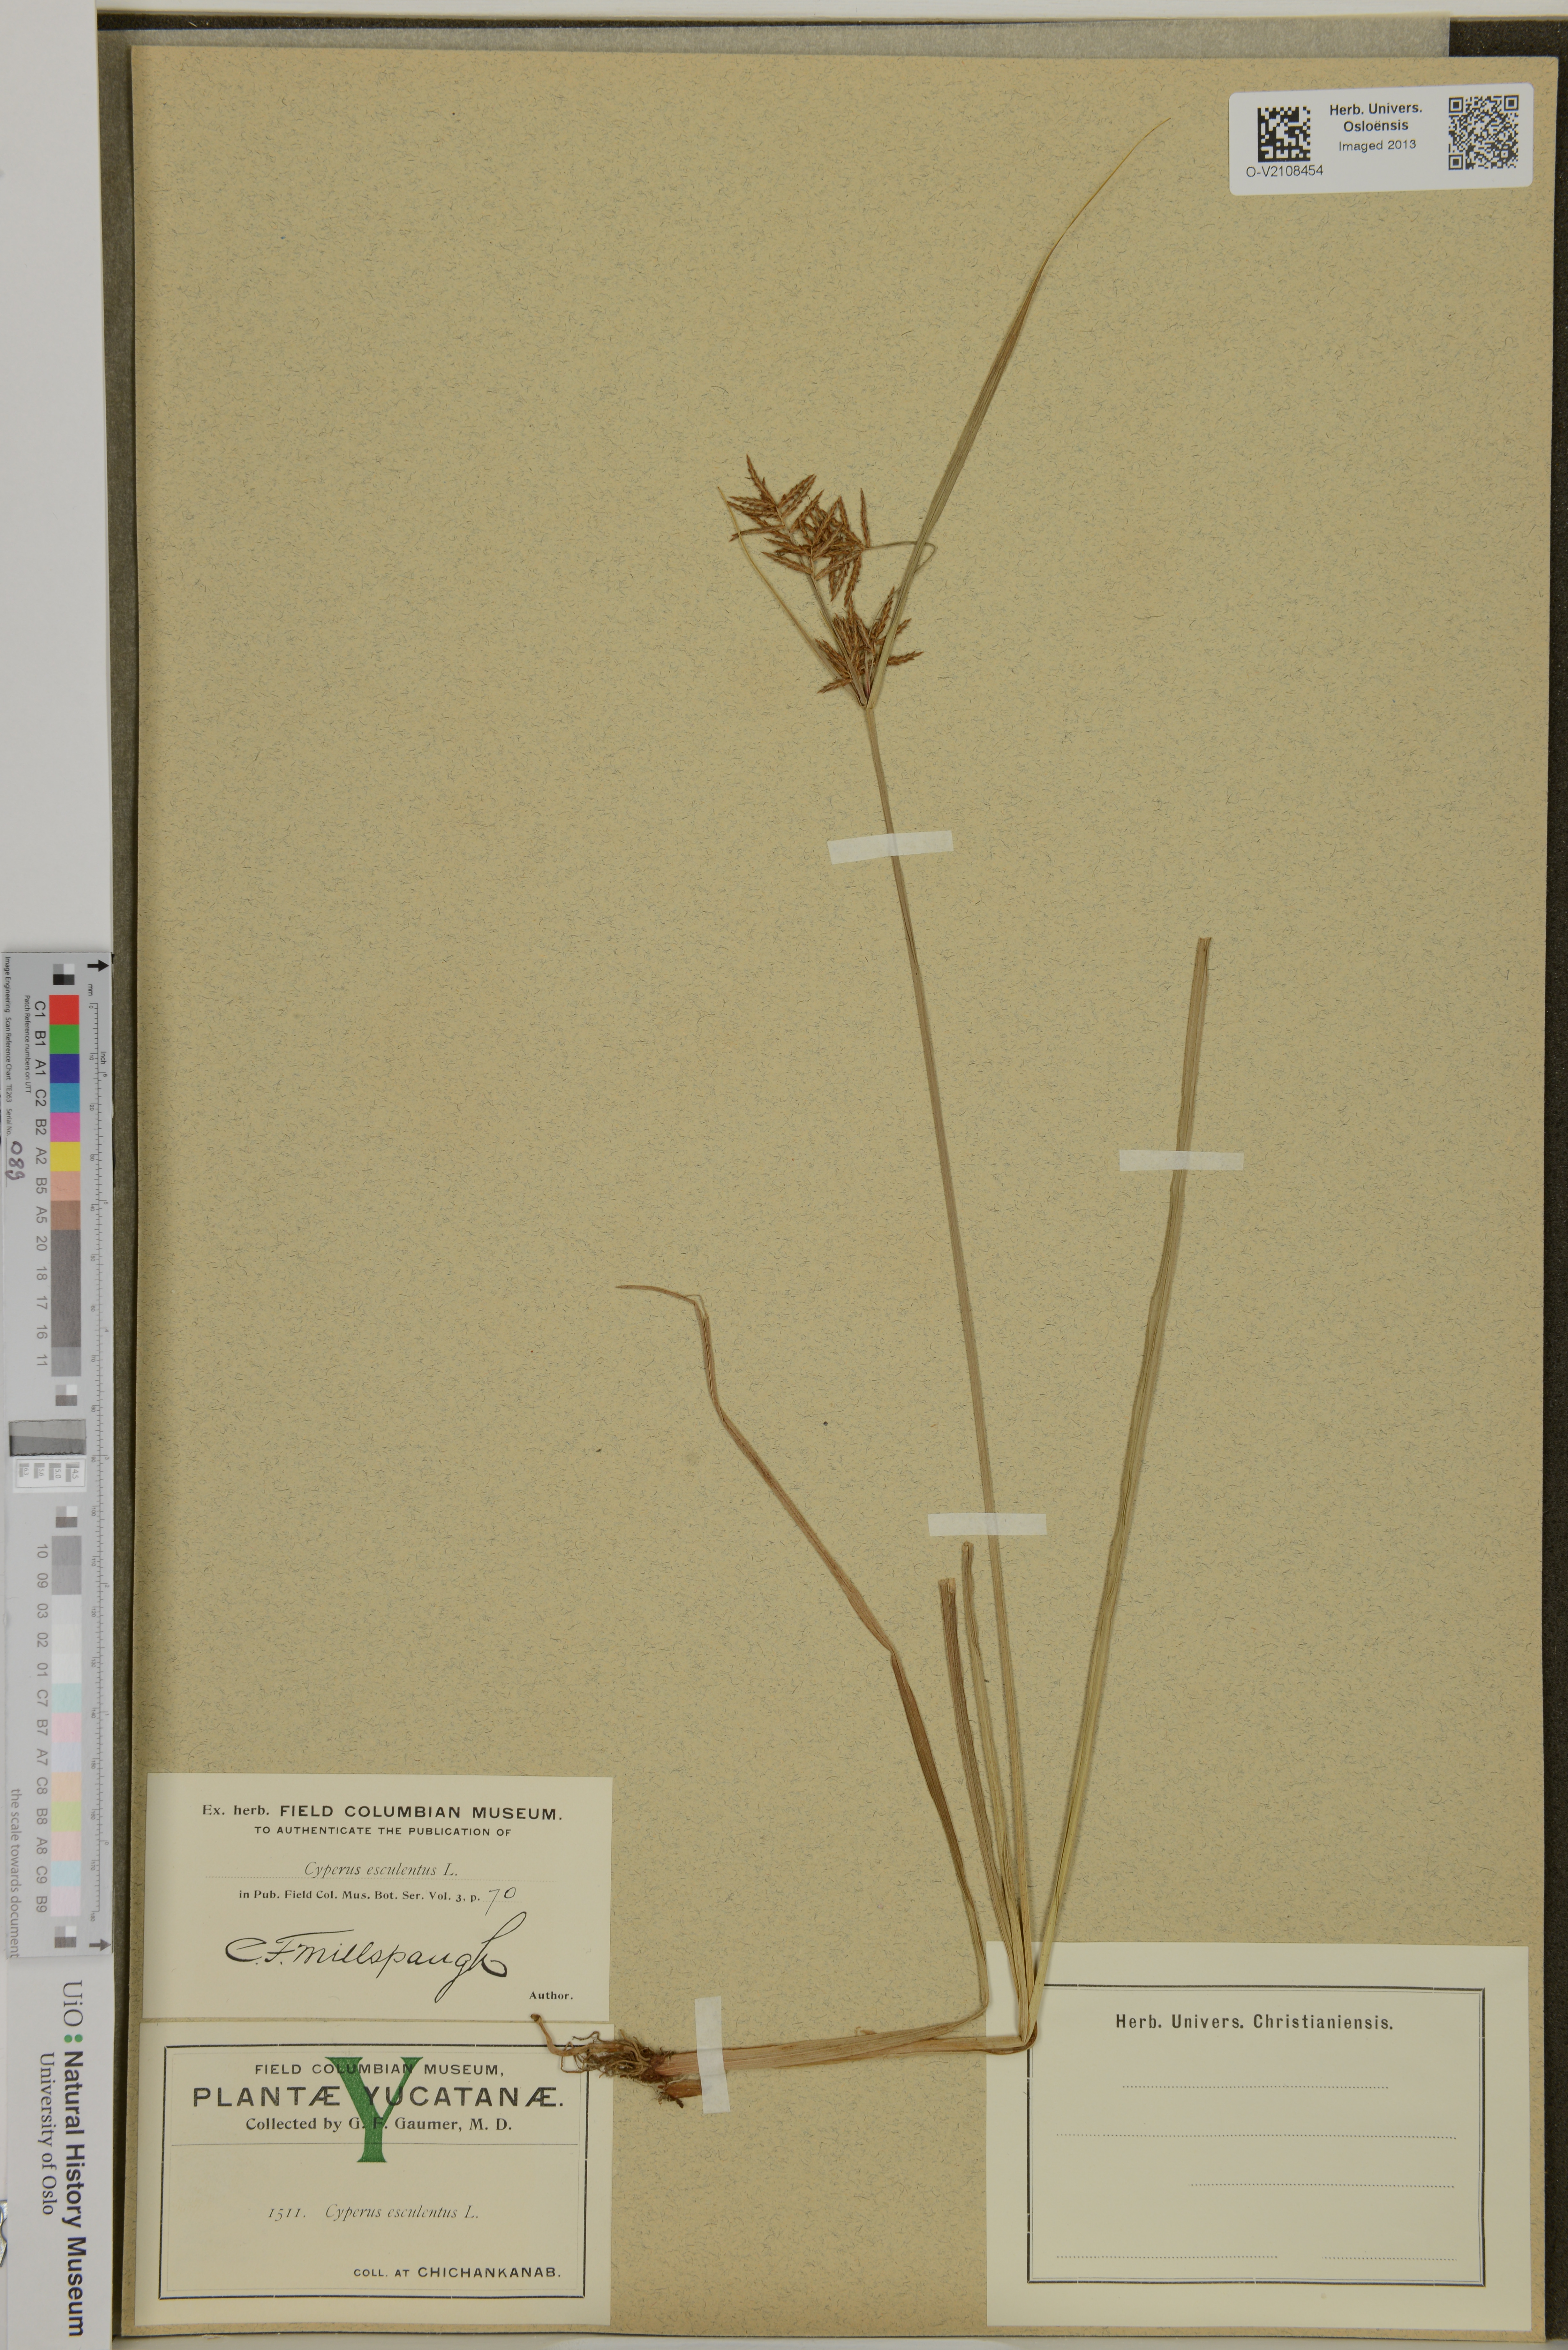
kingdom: Plantae
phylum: Tracheophyta
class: Liliopsida
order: Poales
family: Cyperaceae
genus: Cyperus
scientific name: Cyperus esculentus
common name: Yellow nutsedge
